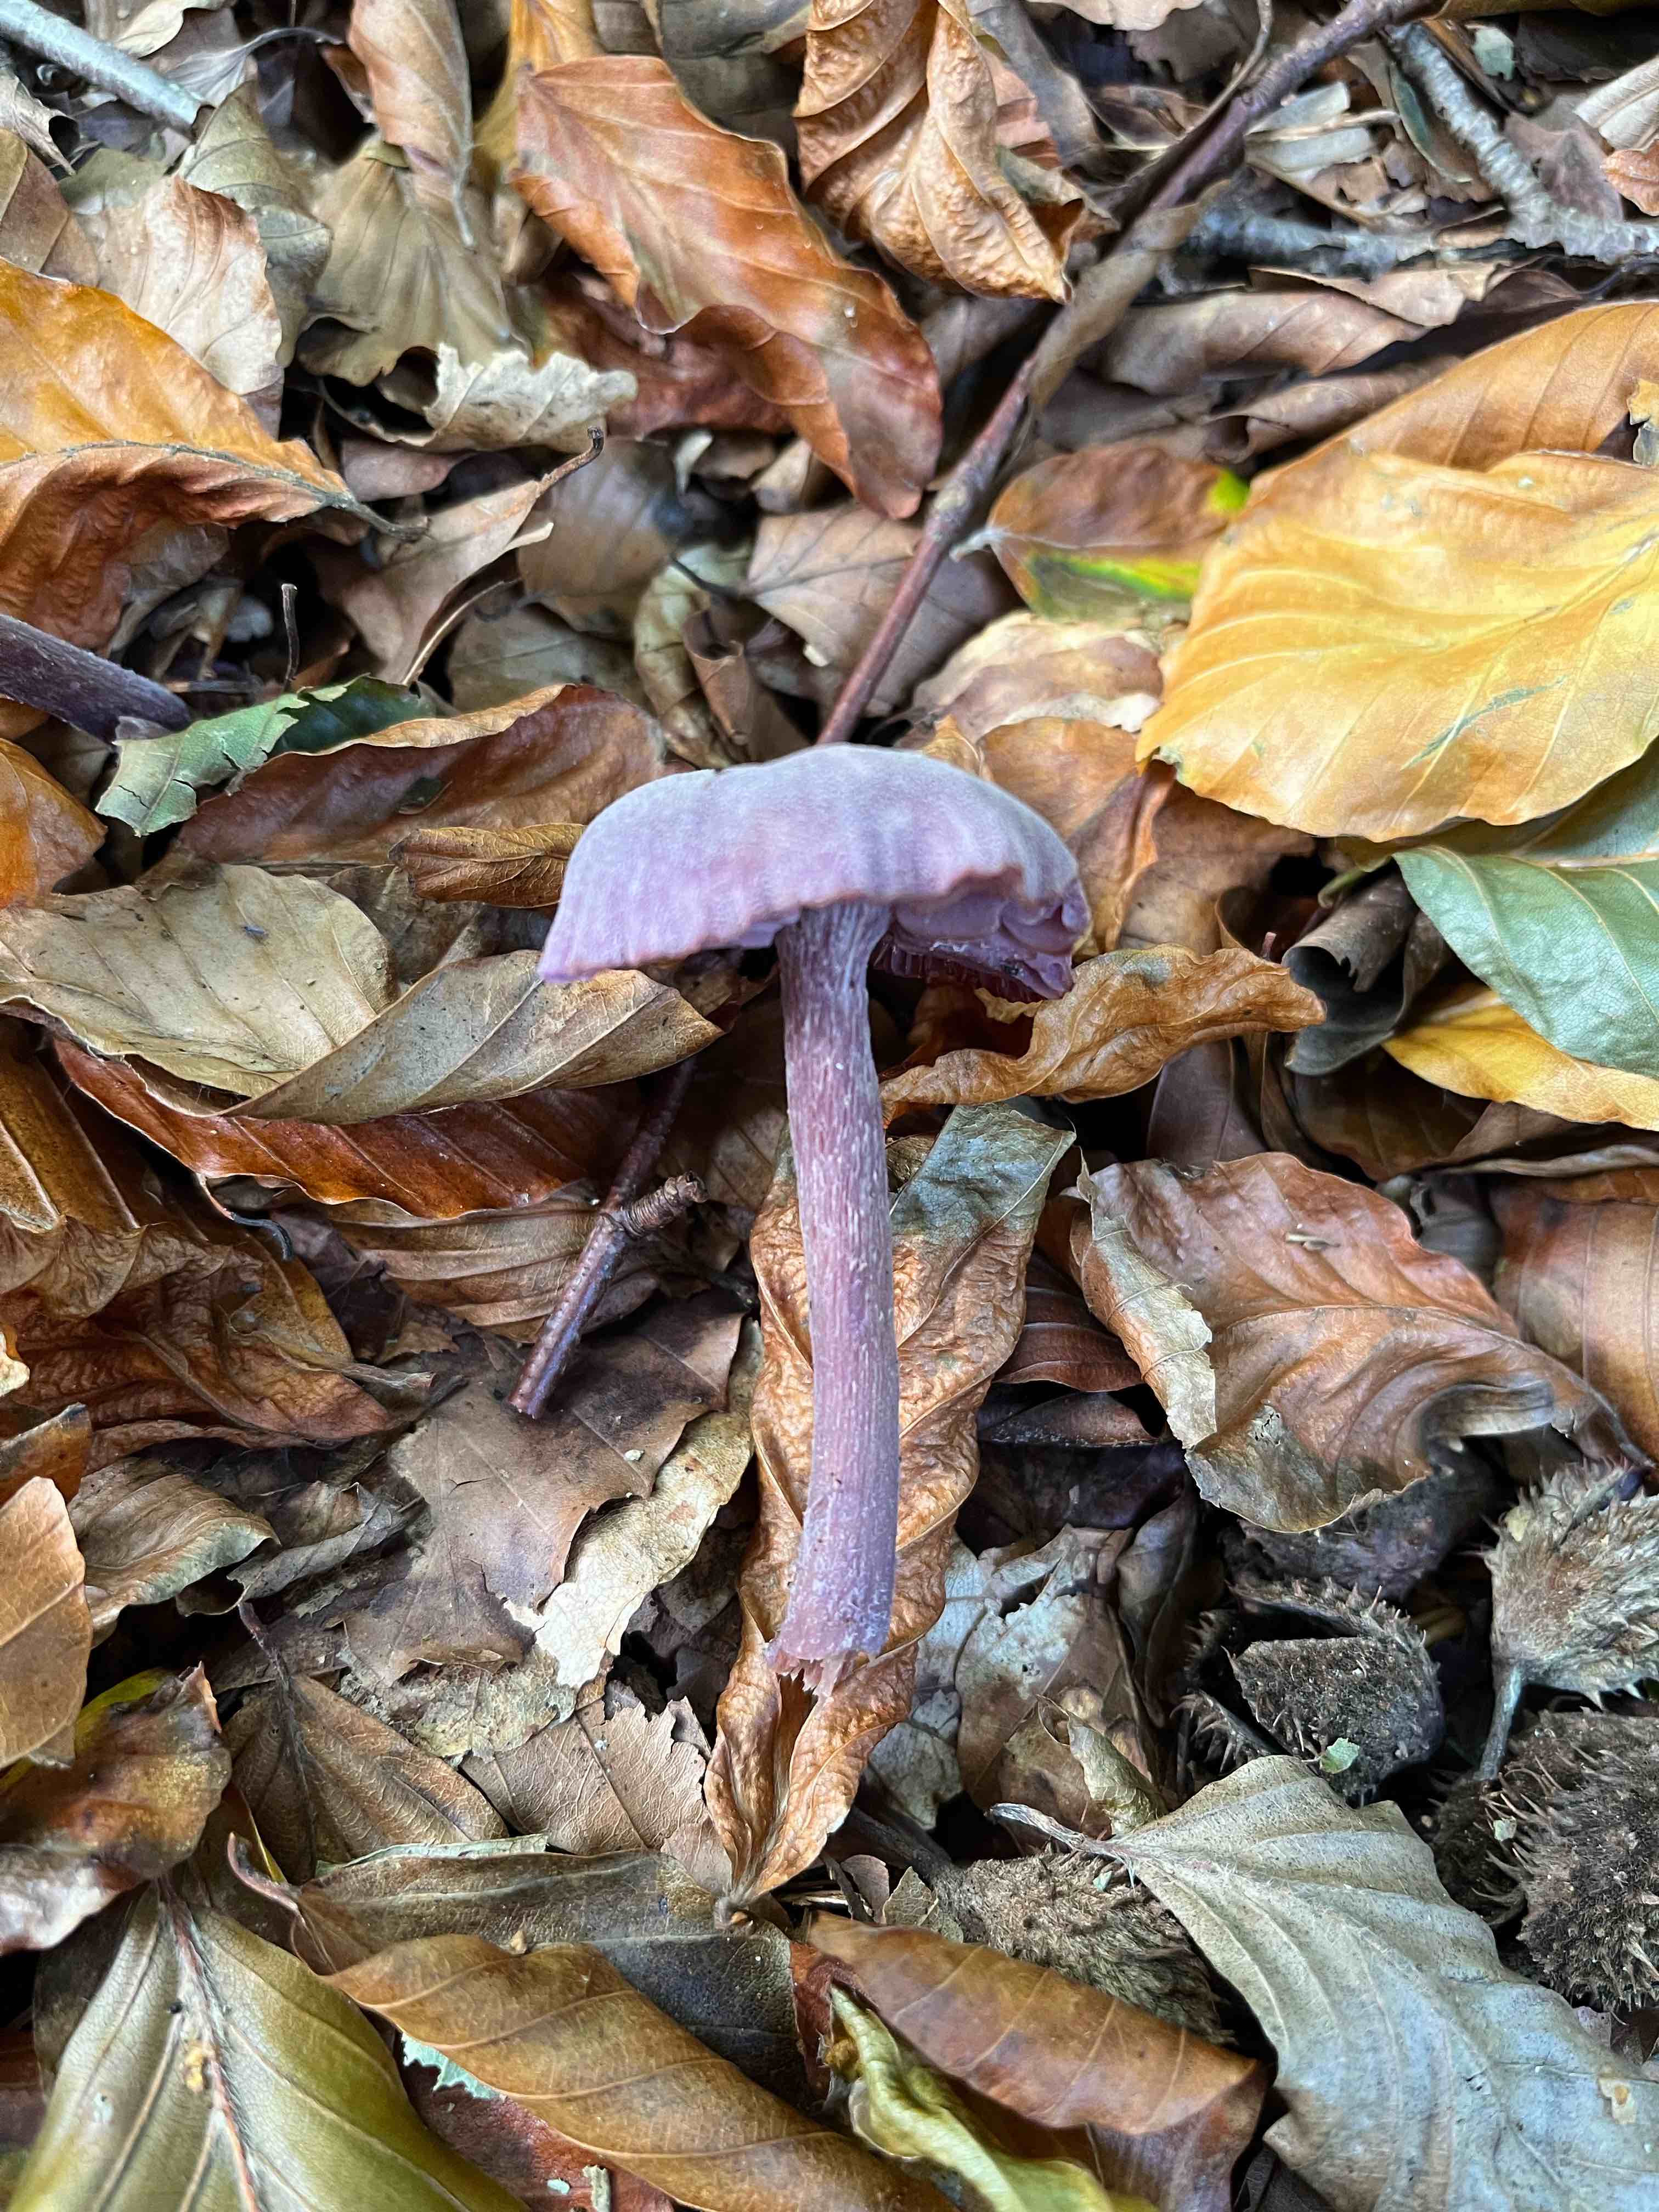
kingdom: Fungi
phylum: Basidiomycota
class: Agaricomycetes
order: Agaricales
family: Hydnangiaceae
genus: Laccaria
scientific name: Laccaria amethystina
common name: violet ametysthat
